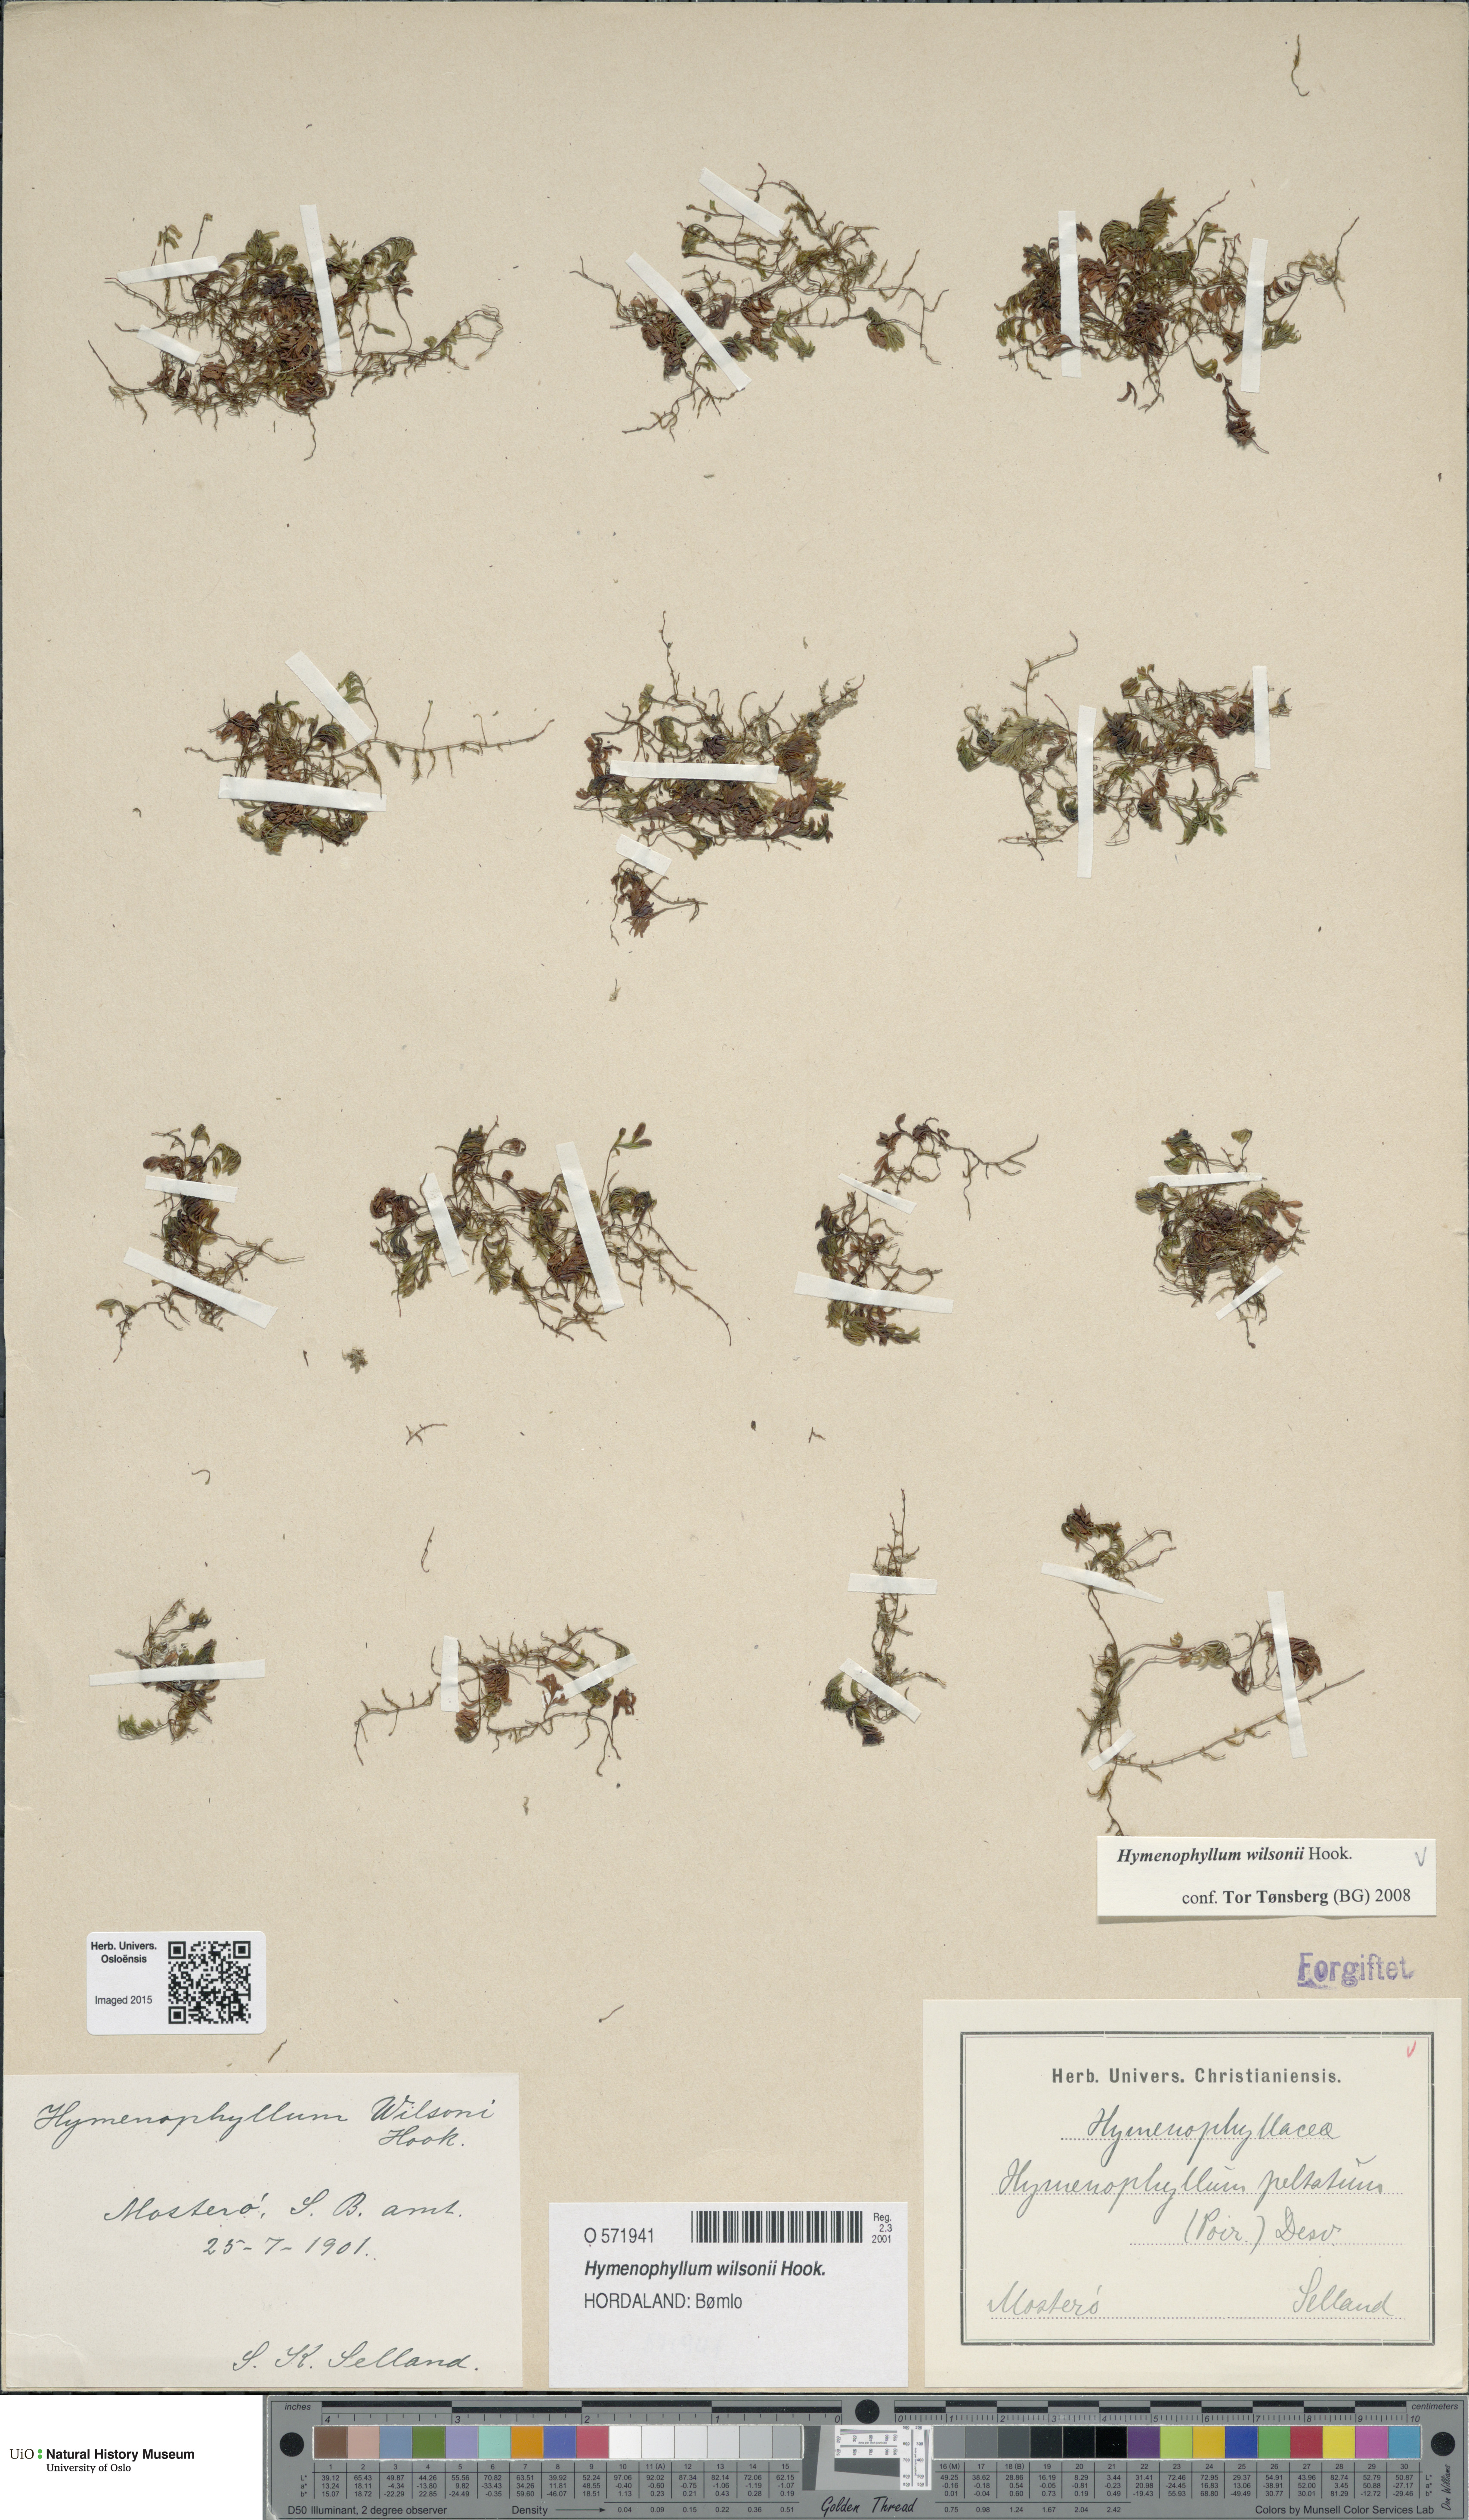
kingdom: Plantae
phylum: Tracheophyta
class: Polypodiopsida
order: Hymenophyllales
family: Hymenophyllaceae
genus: Hymenophyllum
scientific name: Hymenophyllum peltatum
